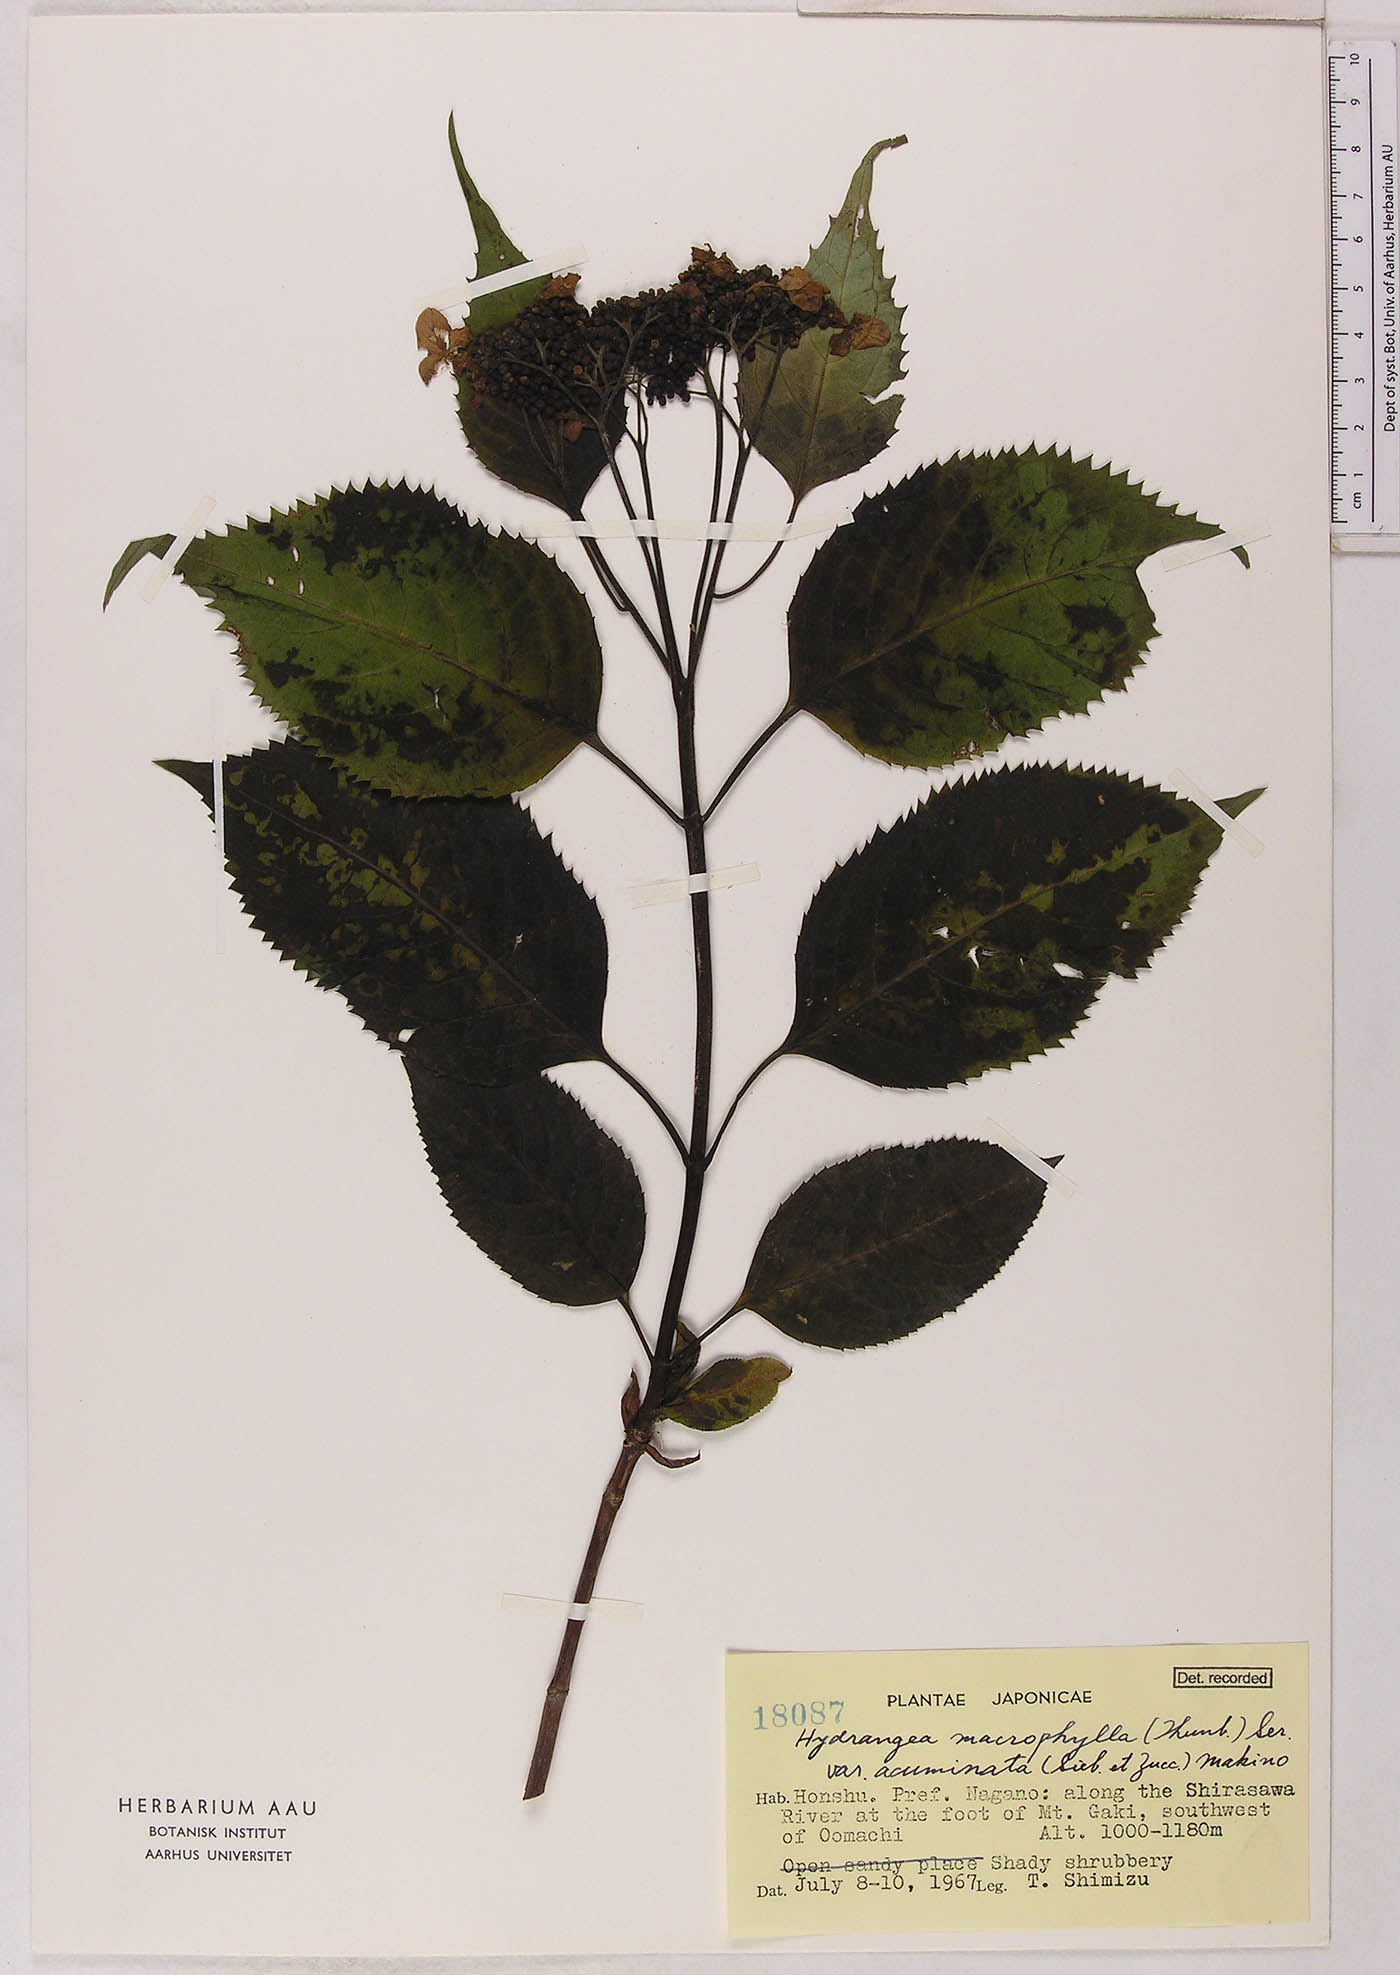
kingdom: Plantae
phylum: Tracheophyta
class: Magnoliopsida
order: Cornales
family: Hydrangeaceae
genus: Hydrangea
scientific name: Hydrangea serrata
